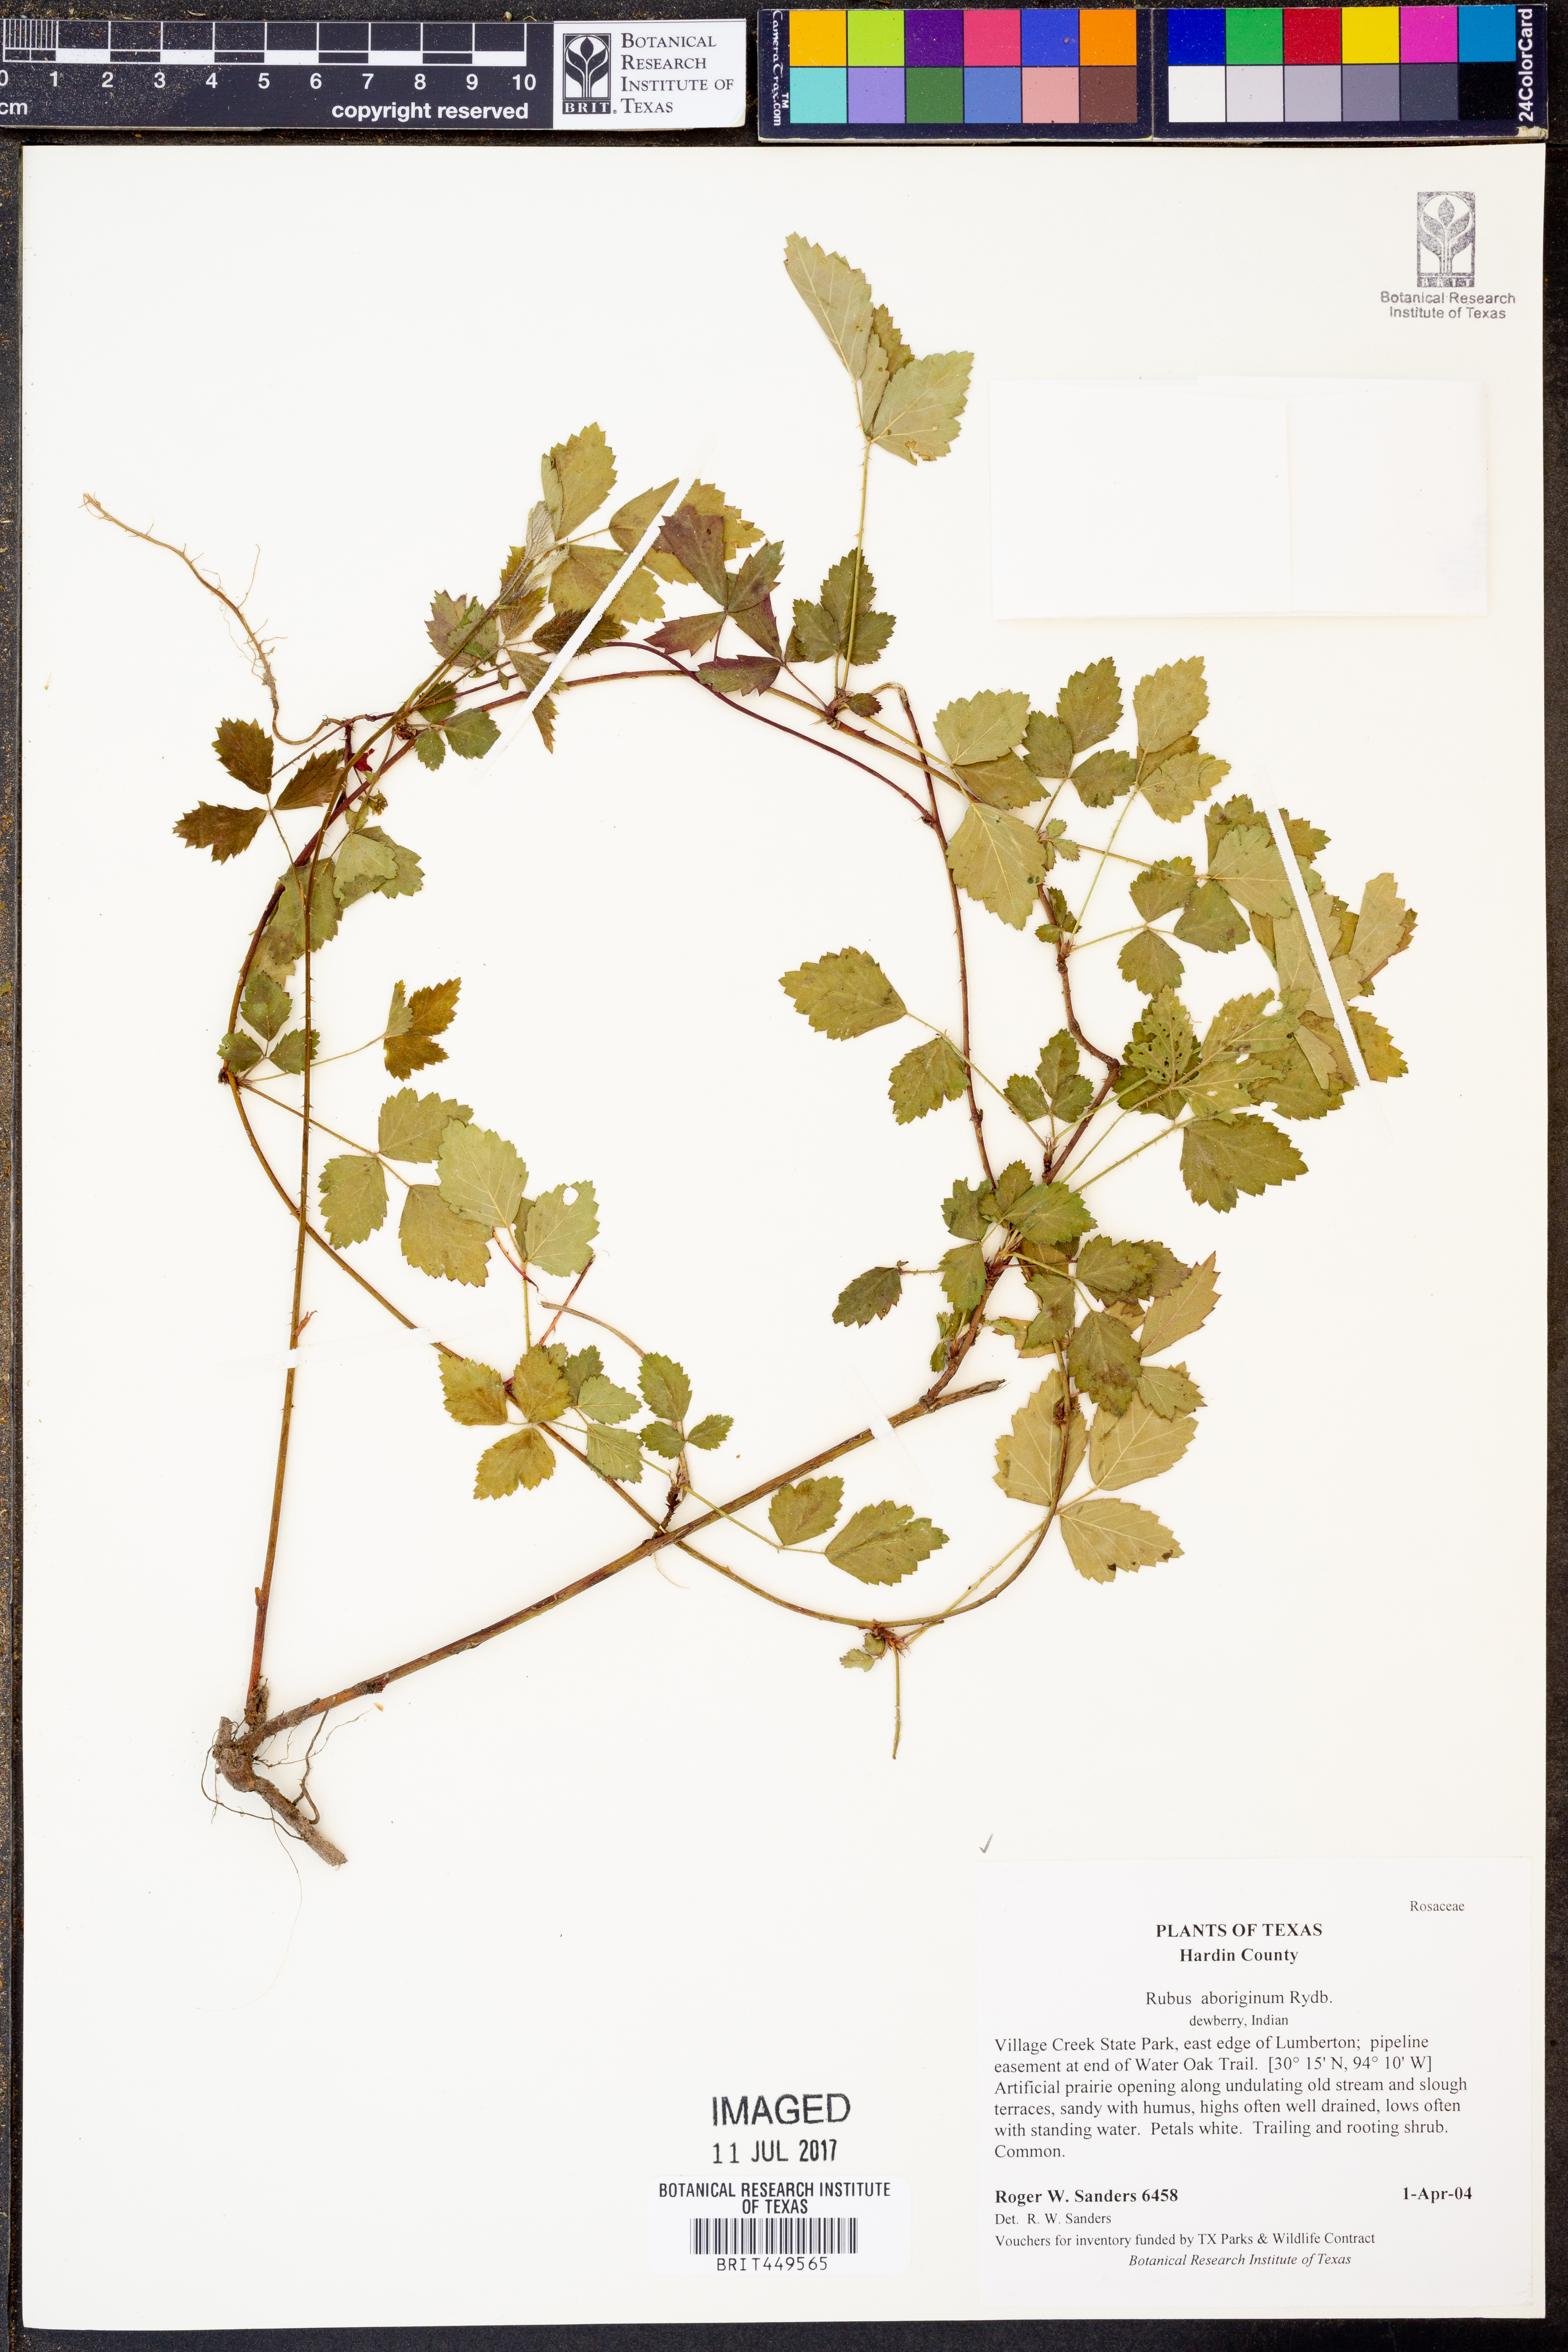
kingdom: Plantae
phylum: Tracheophyta
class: Magnoliopsida
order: Rosales
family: Rosaceae
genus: Rubus
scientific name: Rubus aboriginum
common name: Mayes dewberry
